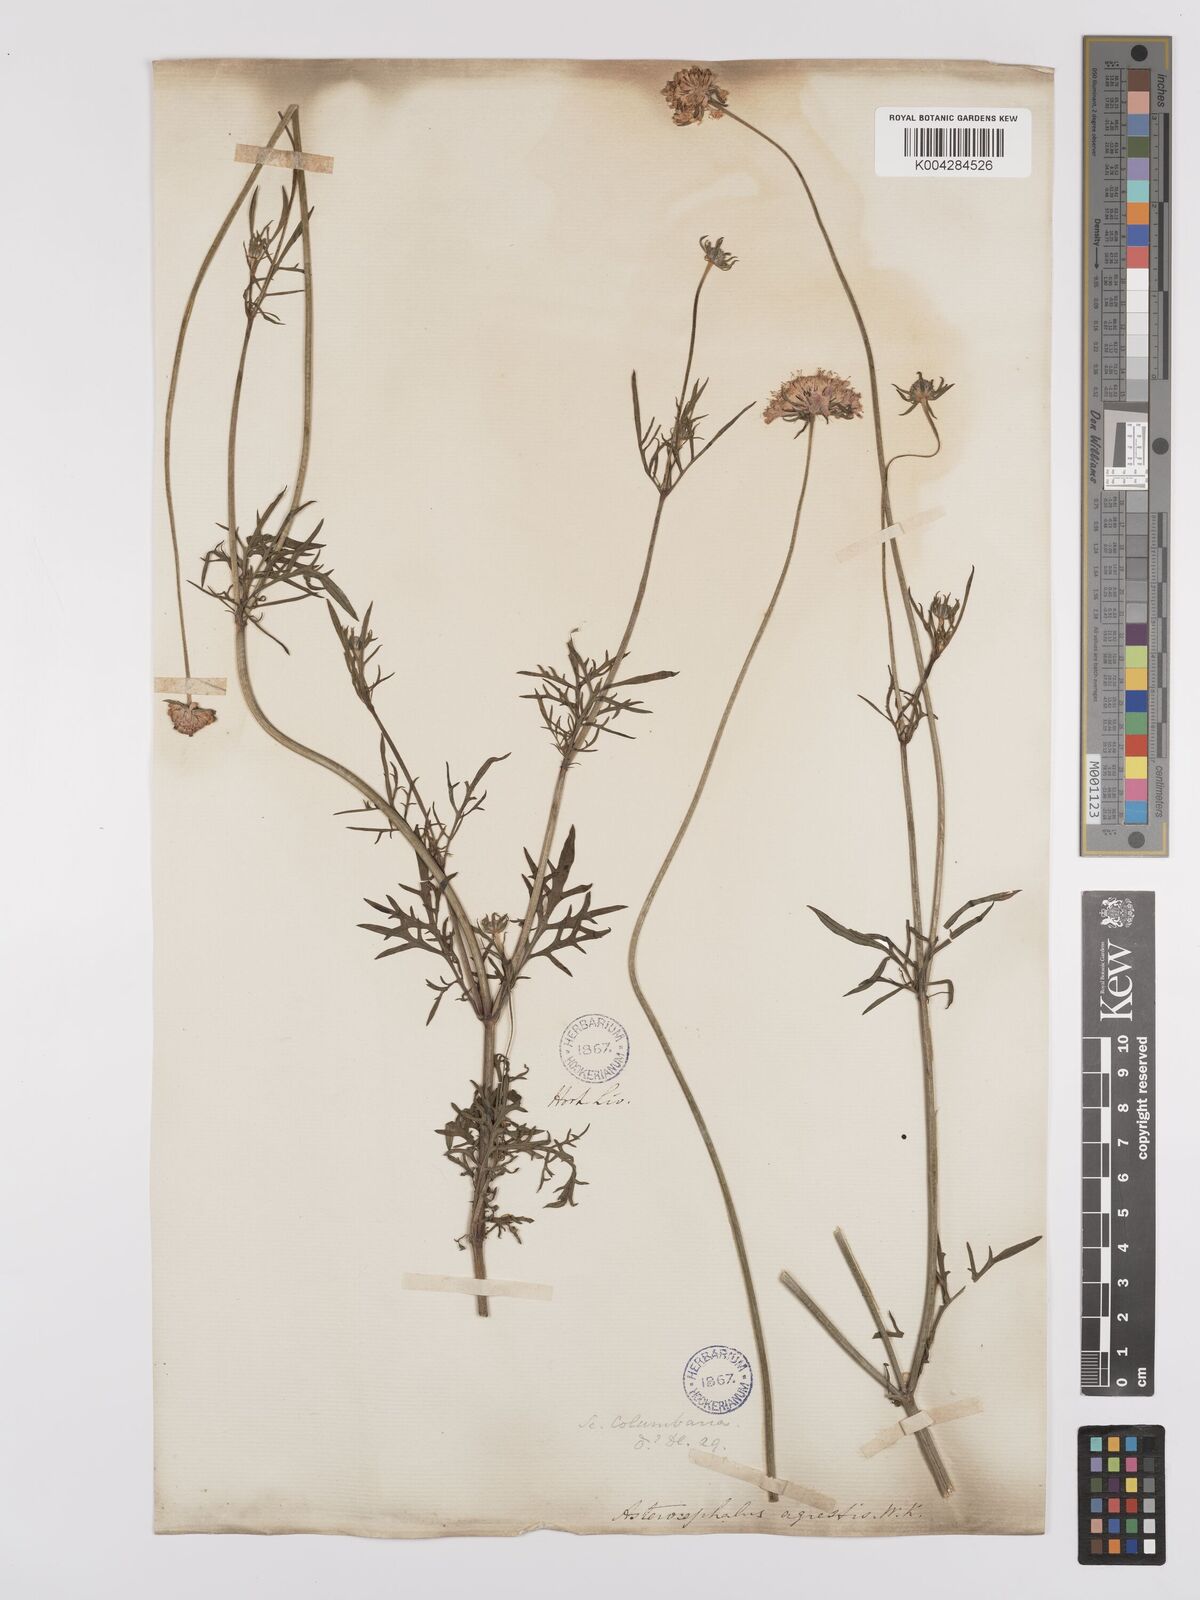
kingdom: Plantae
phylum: Tracheophyta
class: Magnoliopsida
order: Dipsacales
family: Caprifoliaceae
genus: Scabiosa
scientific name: Scabiosa triandra
